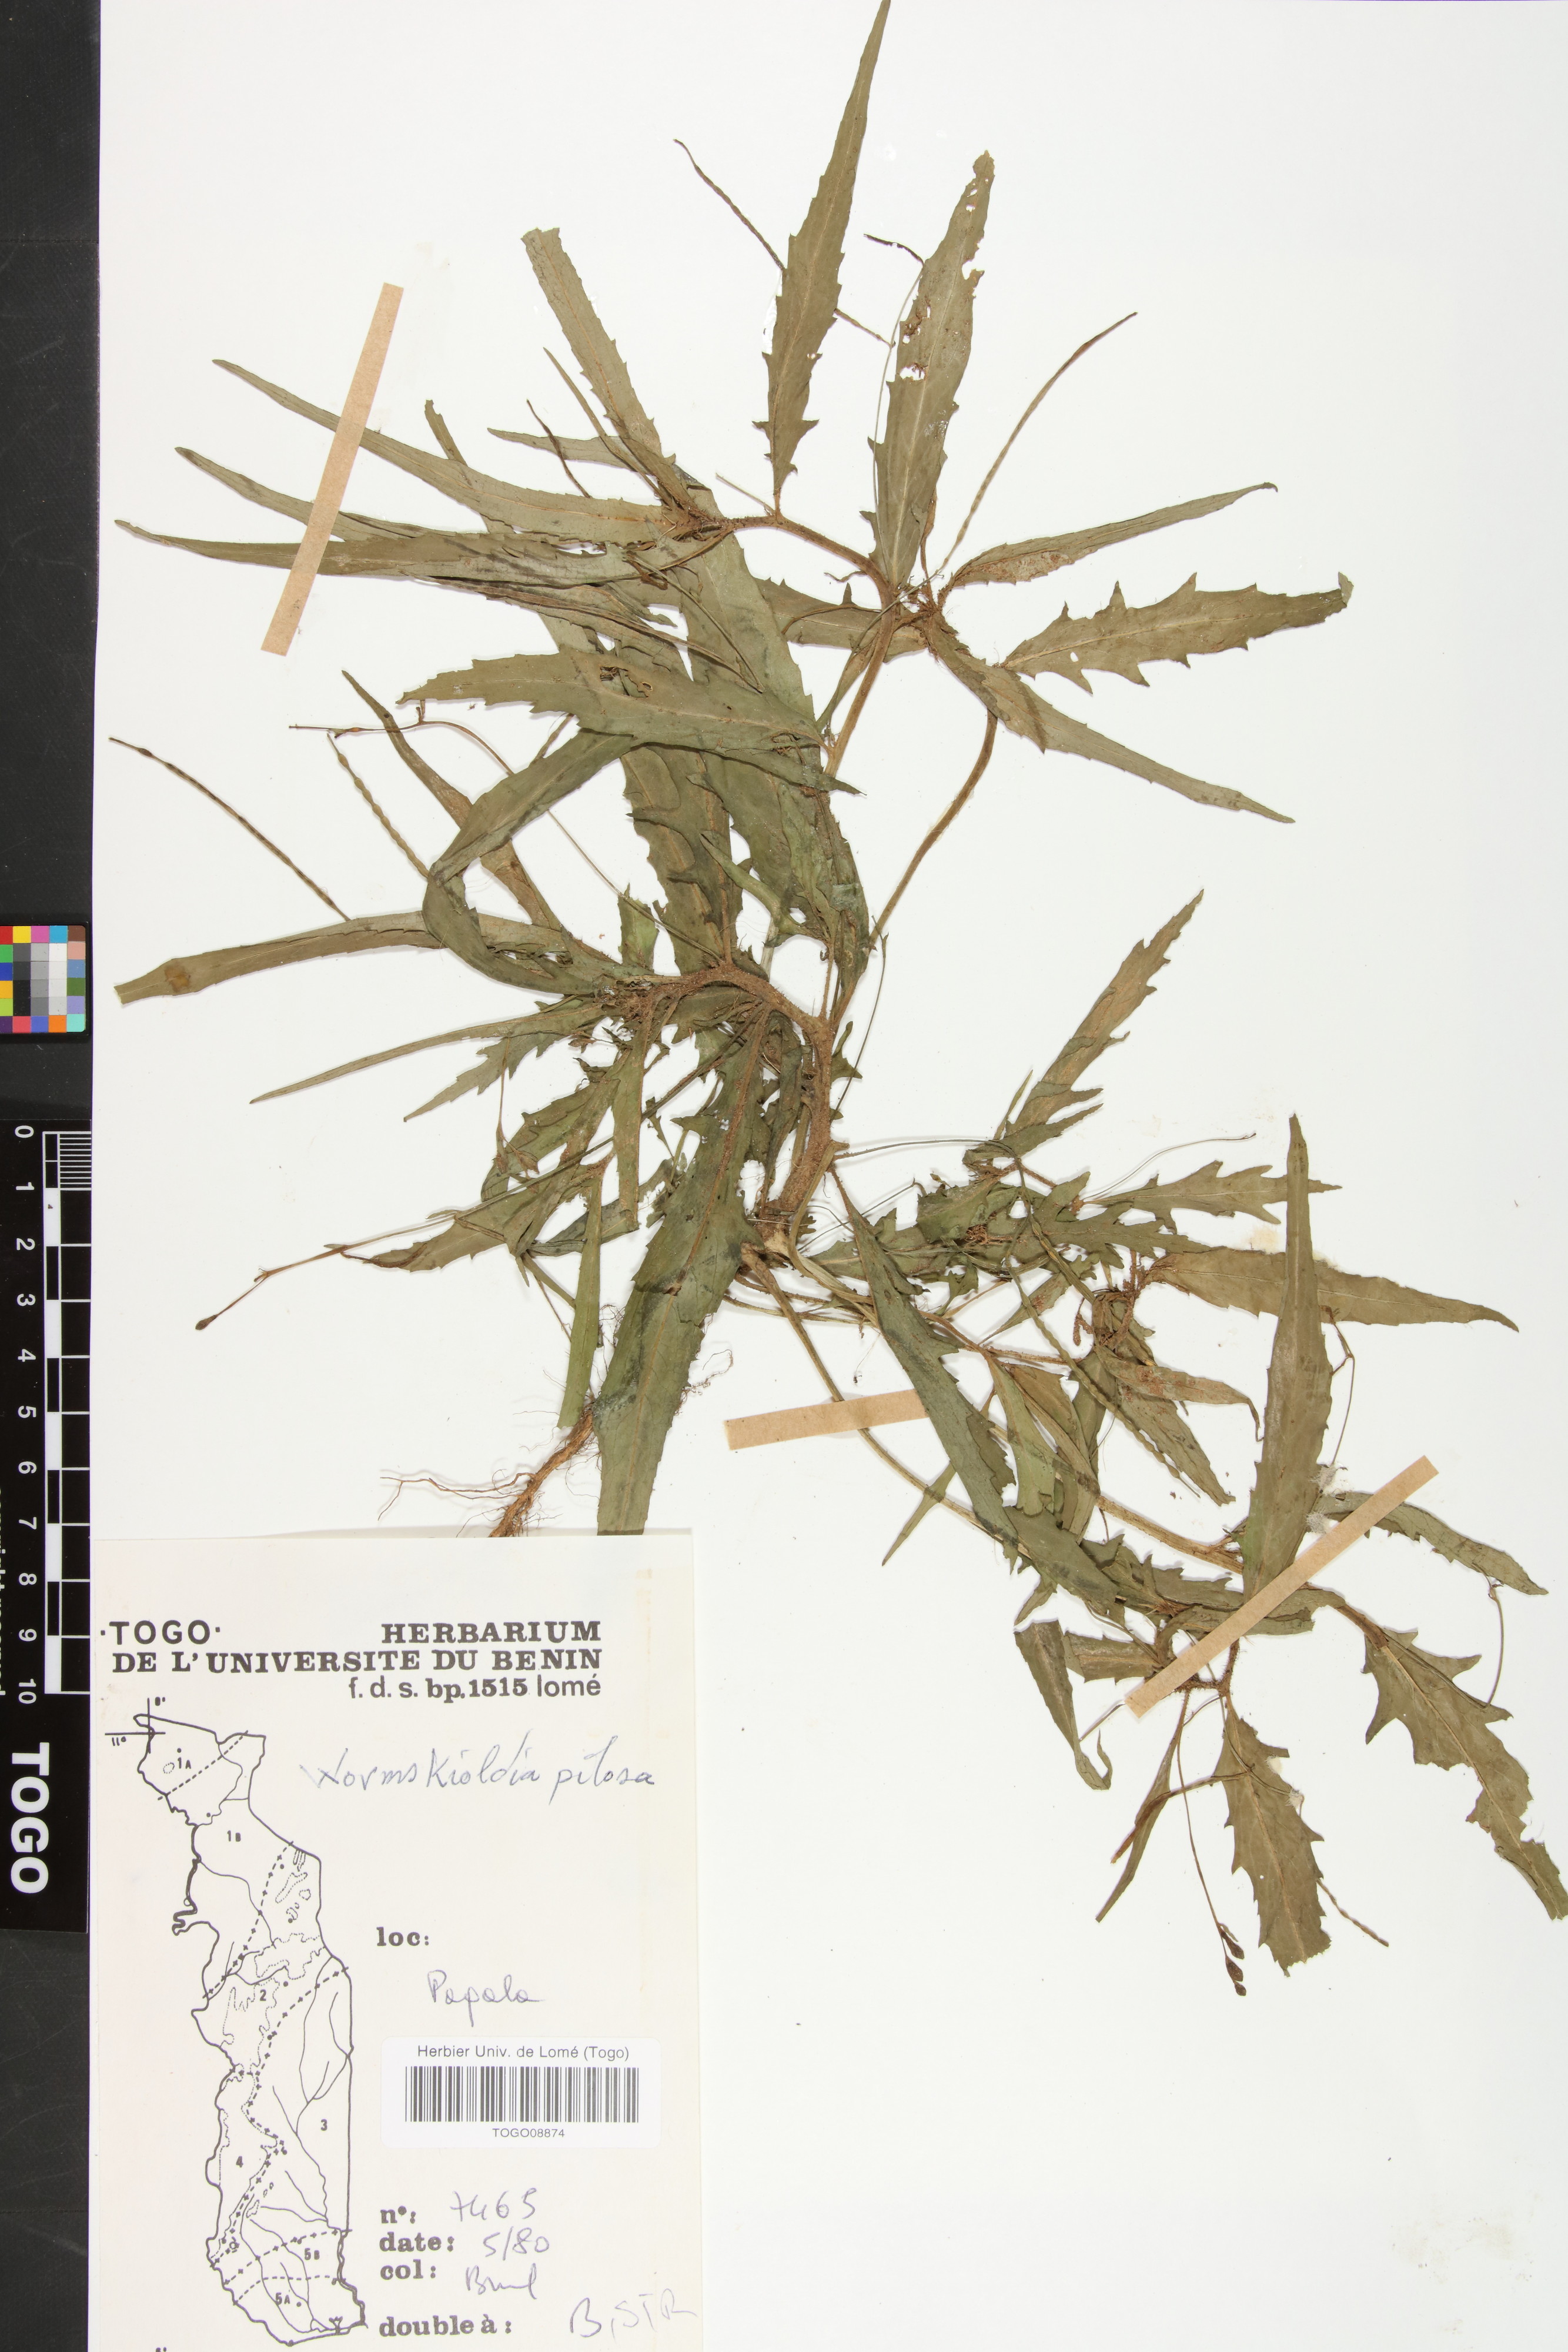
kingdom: Plantae
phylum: Tracheophyta
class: Magnoliopsida
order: Malpighiales
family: Turneraceae
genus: Tricliceras
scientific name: Tricliceras pilosum
